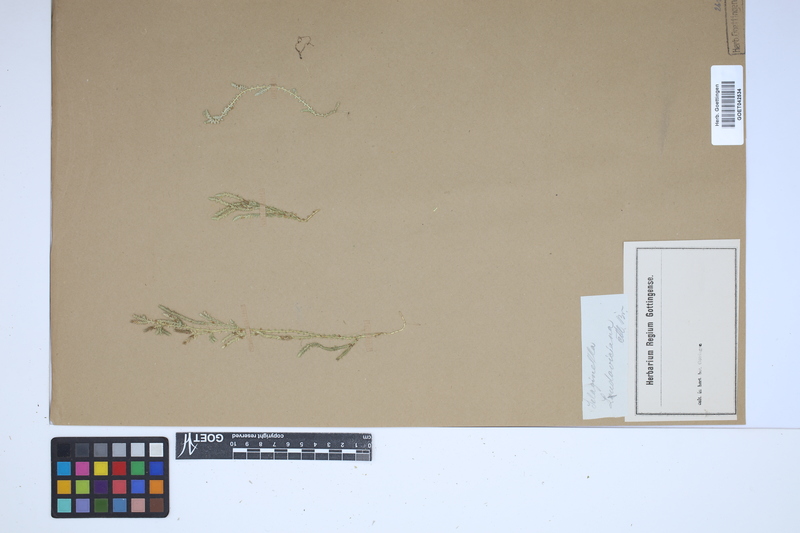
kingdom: Plantae
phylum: Tracheophyta
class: Lycopodiopsida
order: Selaginellales
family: Selaginellaceae
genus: Selaginella
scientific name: Selaginella ludoviciana
